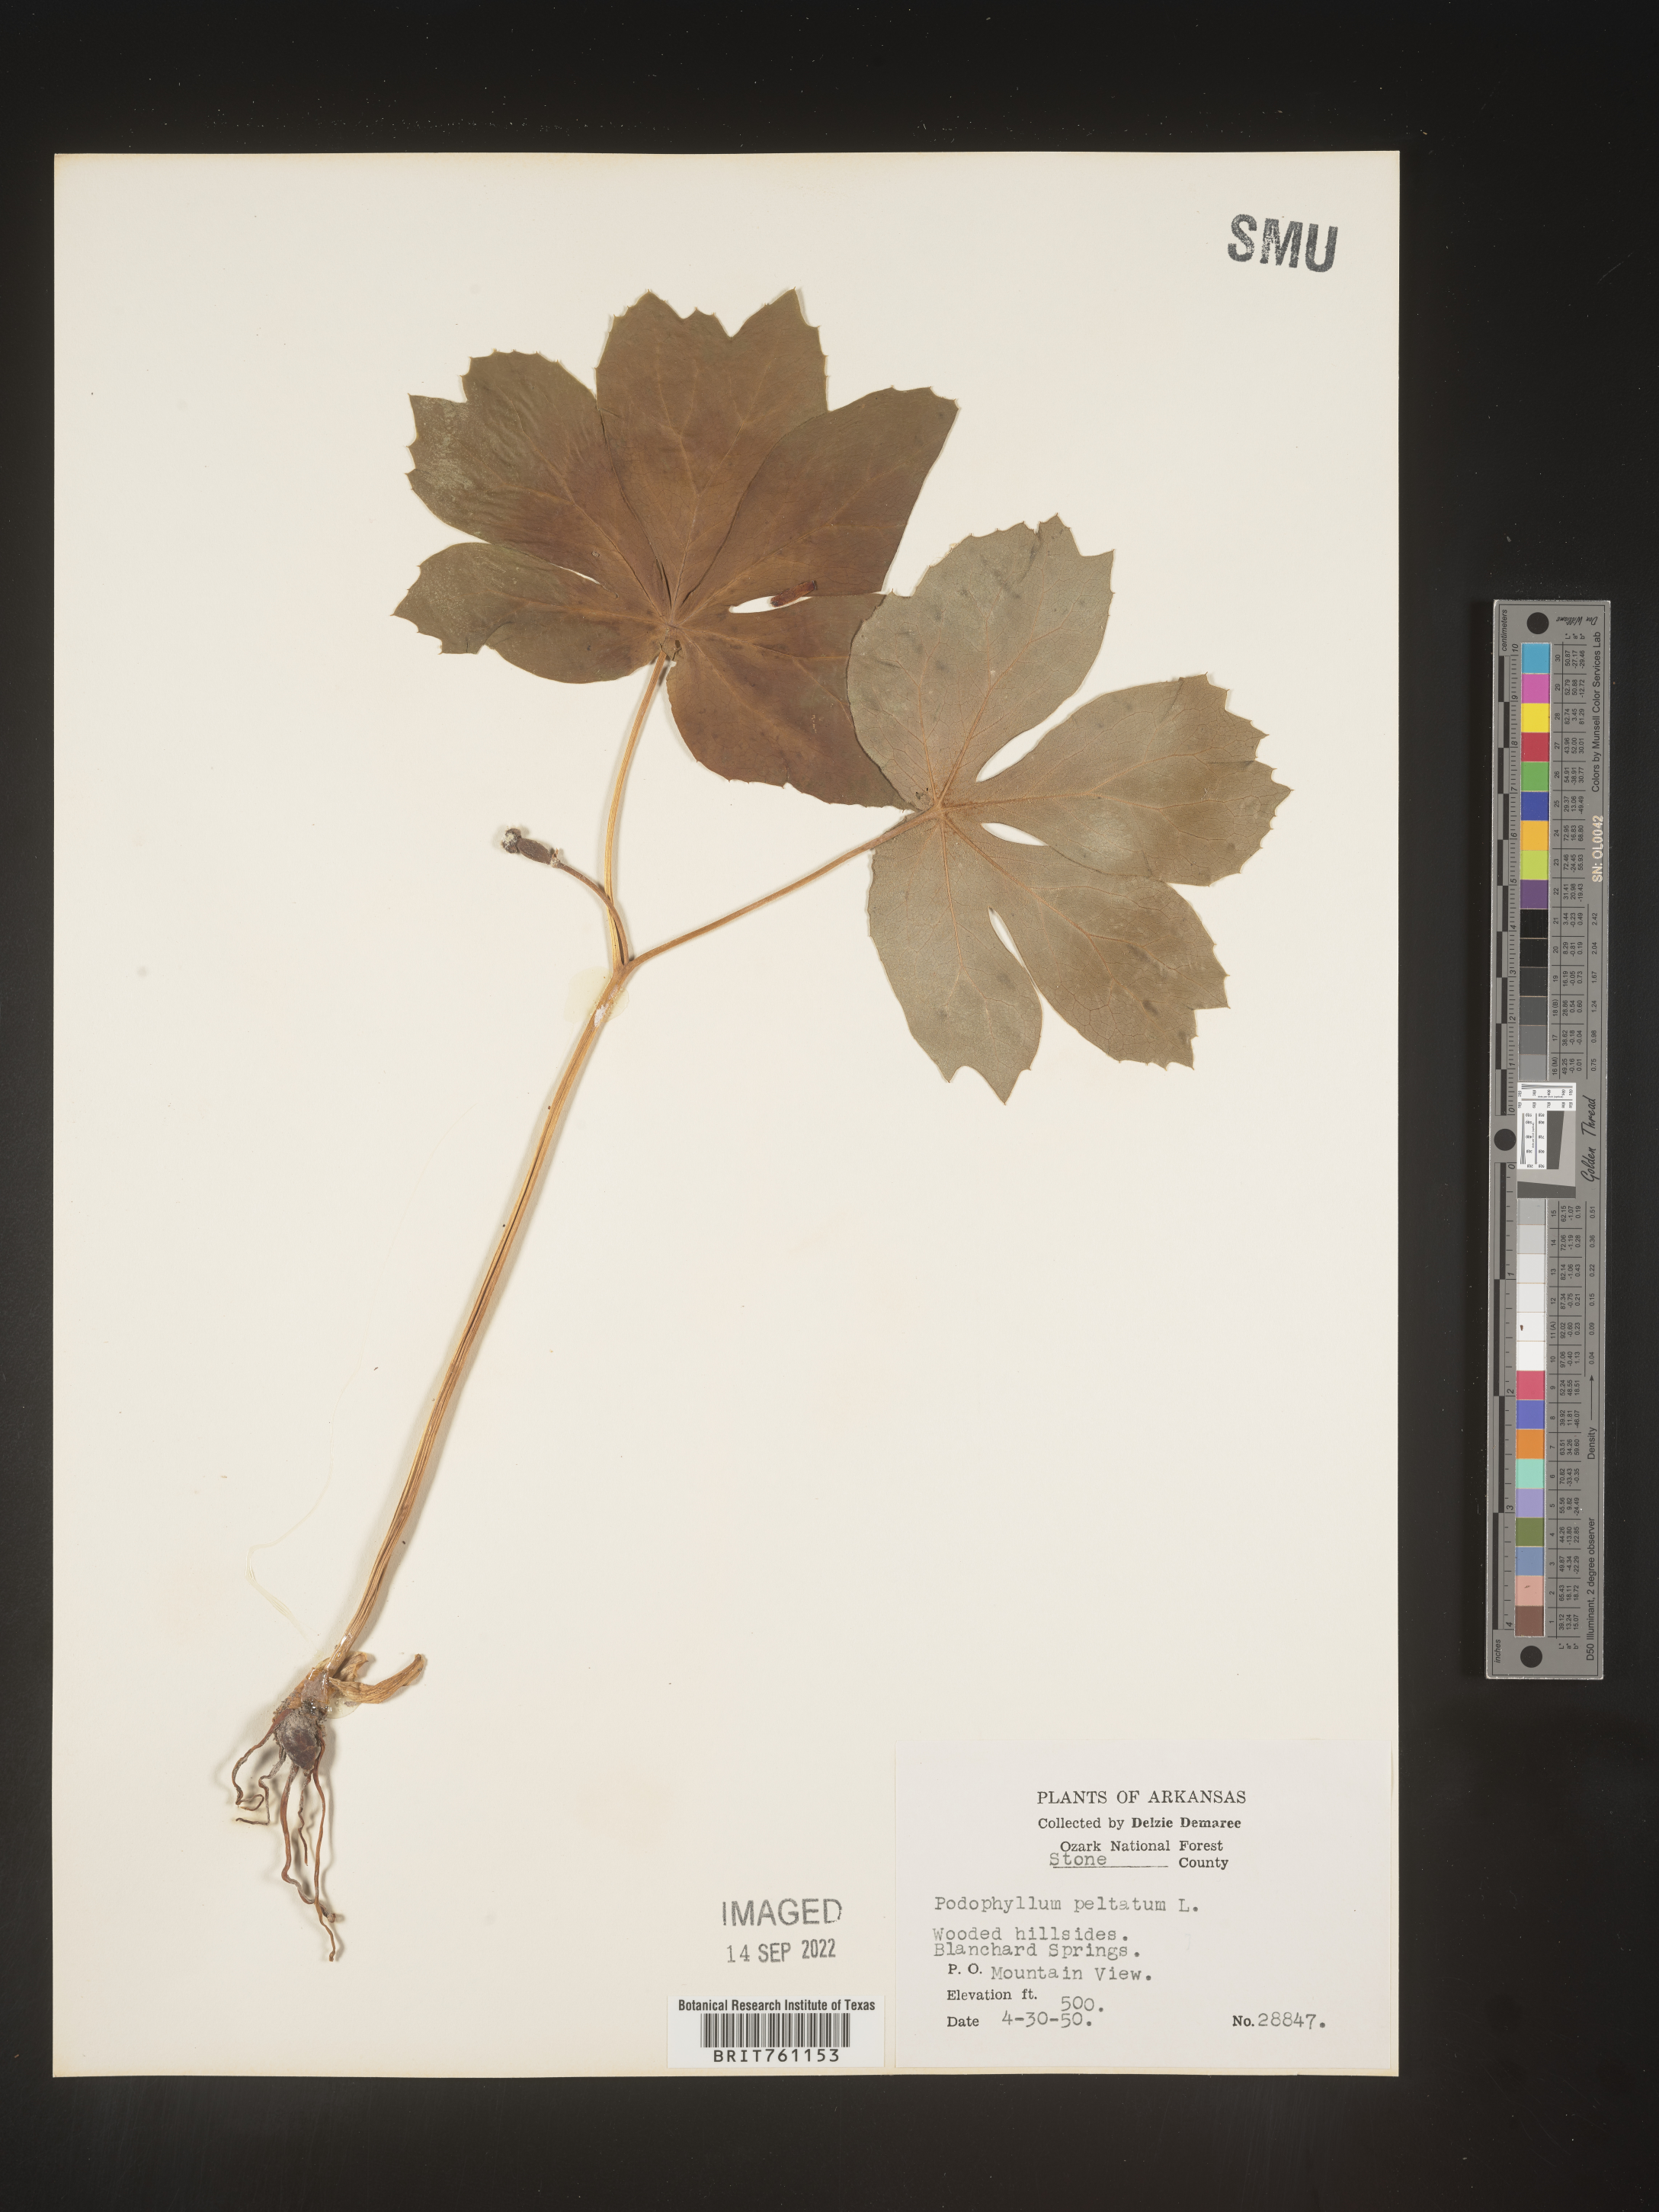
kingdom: Plantae
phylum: Tracheophyta
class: Magnoliopsida
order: Ranunculales
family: Berberidaceae
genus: Podophyllum
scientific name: Podophyllum peltatum
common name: Wild mandrake
